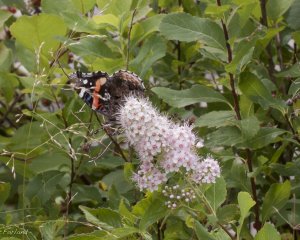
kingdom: Animalia
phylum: Arthropoda
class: Insecta
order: Lepidoptera
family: Nymphalidae
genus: Vanessa
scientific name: Vanessa atalanta
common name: Red Admiral
